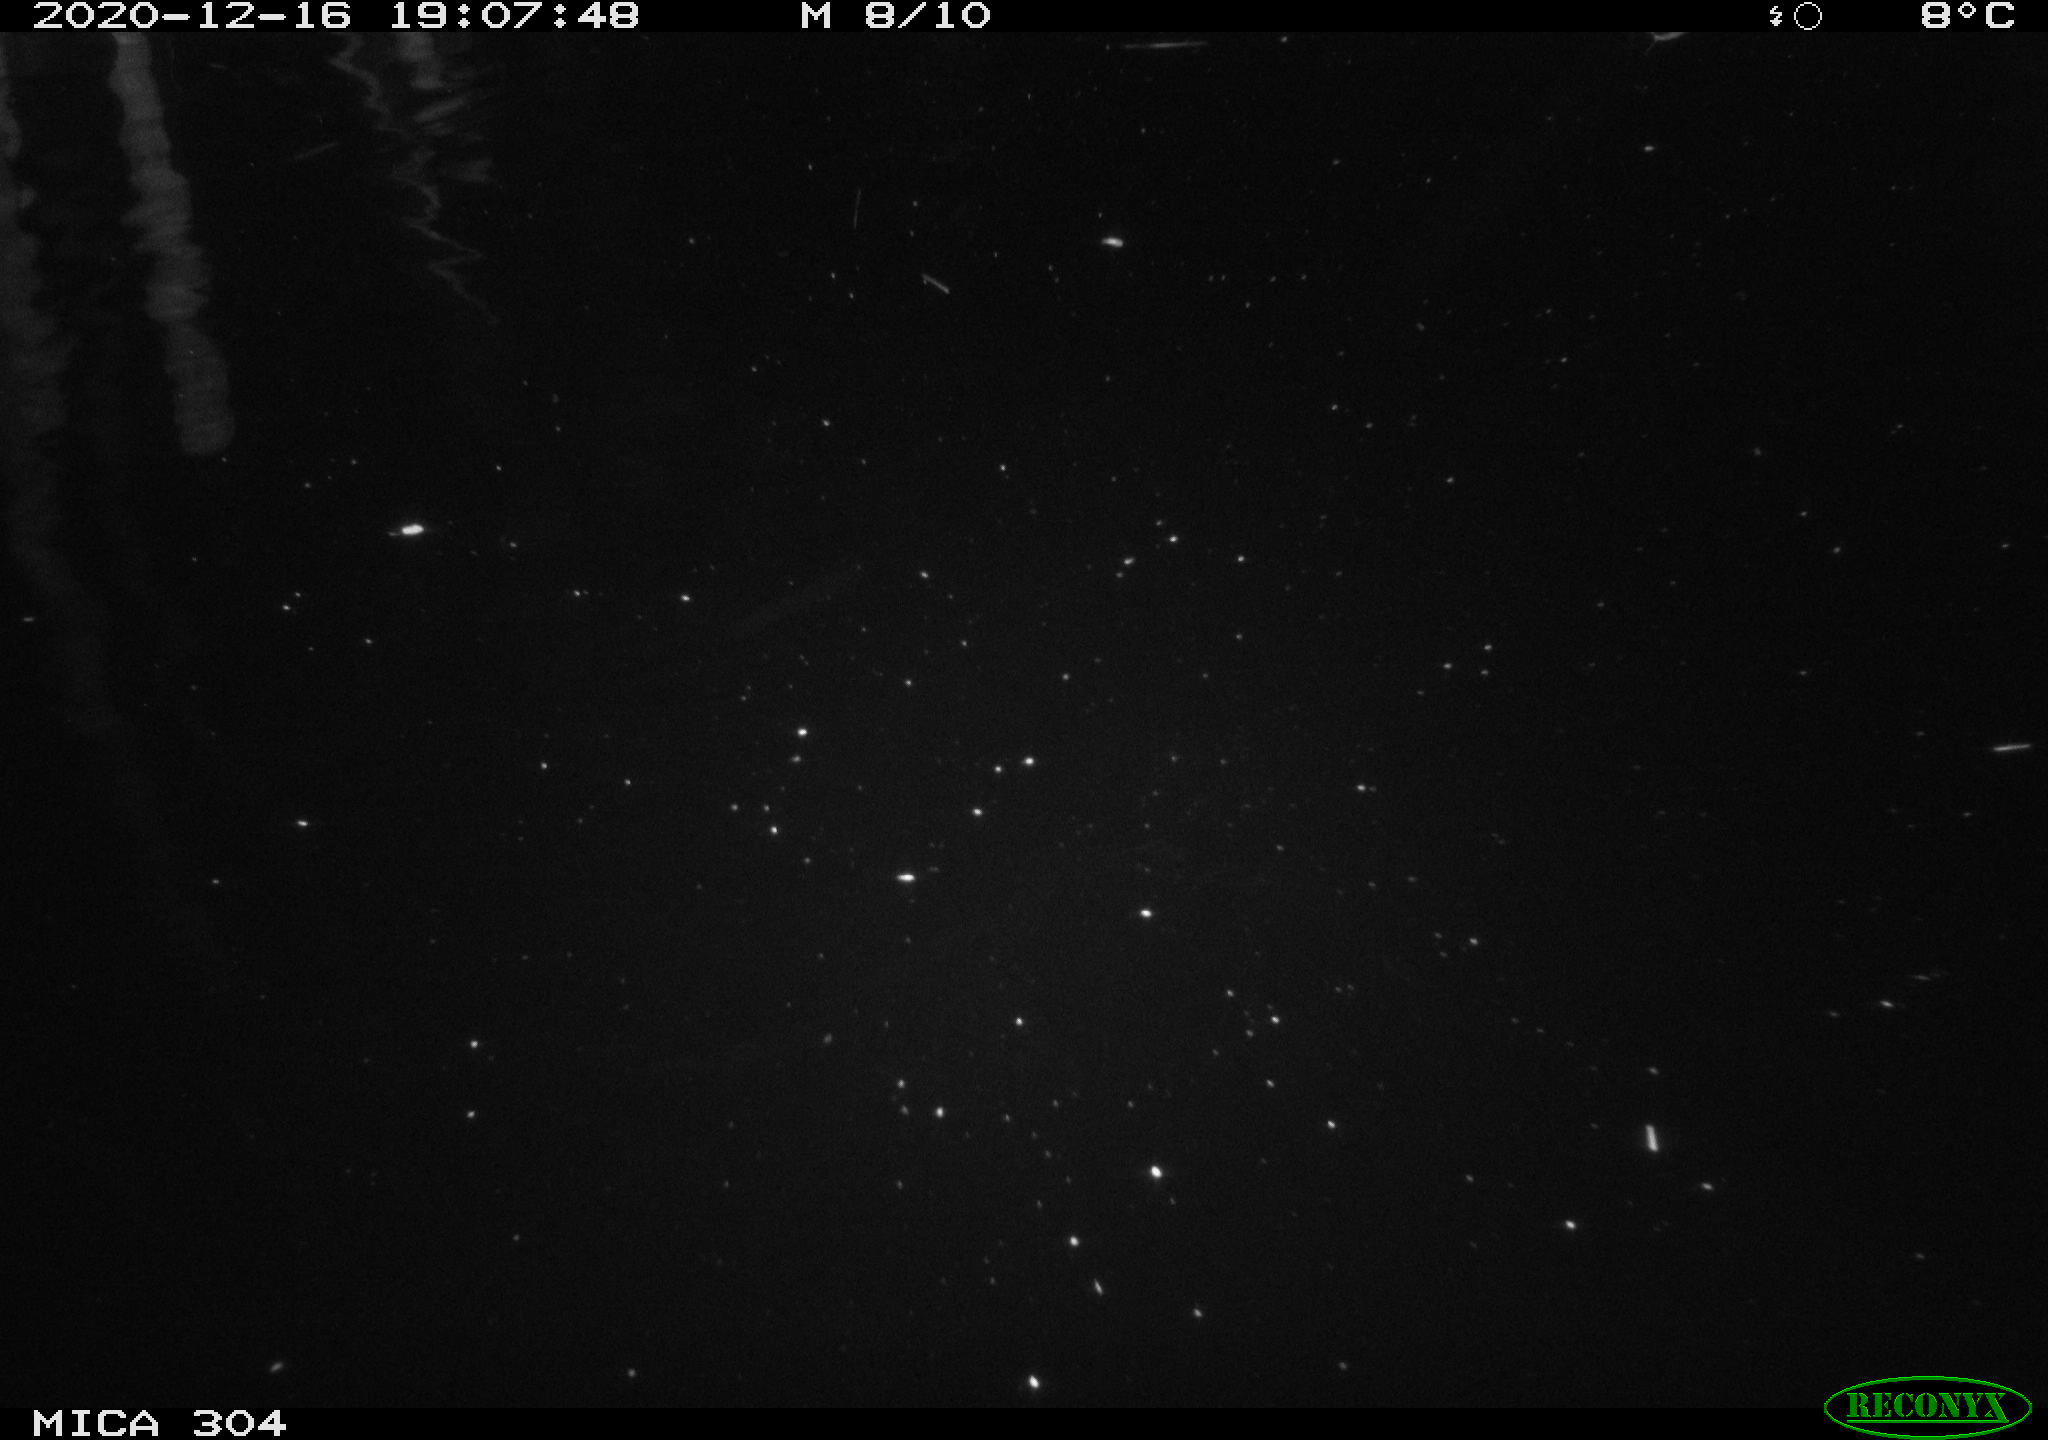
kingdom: Animalia
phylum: Chordata
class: Mammalia
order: Rodentia
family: Muridae
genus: Rattus
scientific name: Rattus norvegicus
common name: Brown rat
